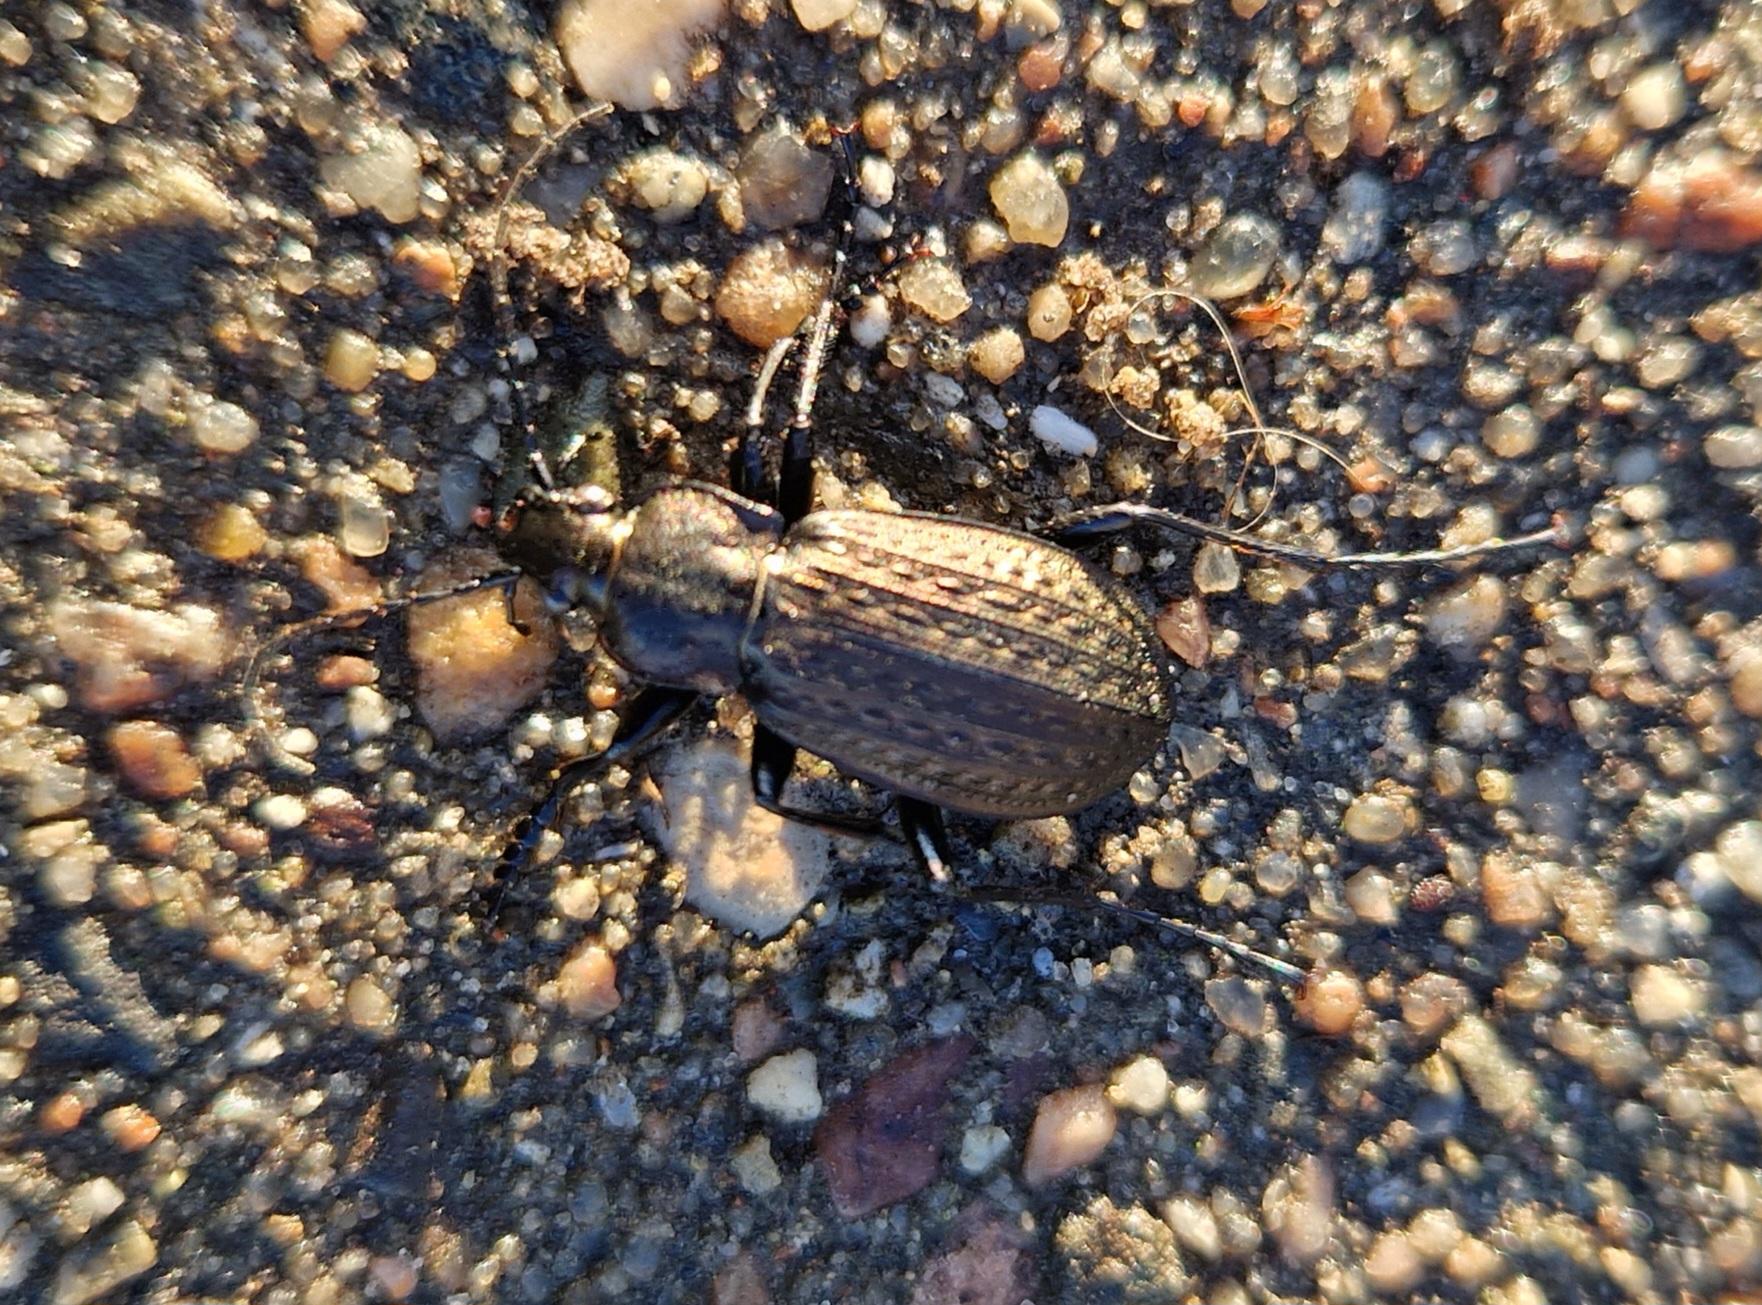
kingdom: Animalia
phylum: Arthropoda
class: Insecta
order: Coleoptera
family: Carabidae
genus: Carabus
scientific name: Carabus granulatus
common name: Kornet løber
